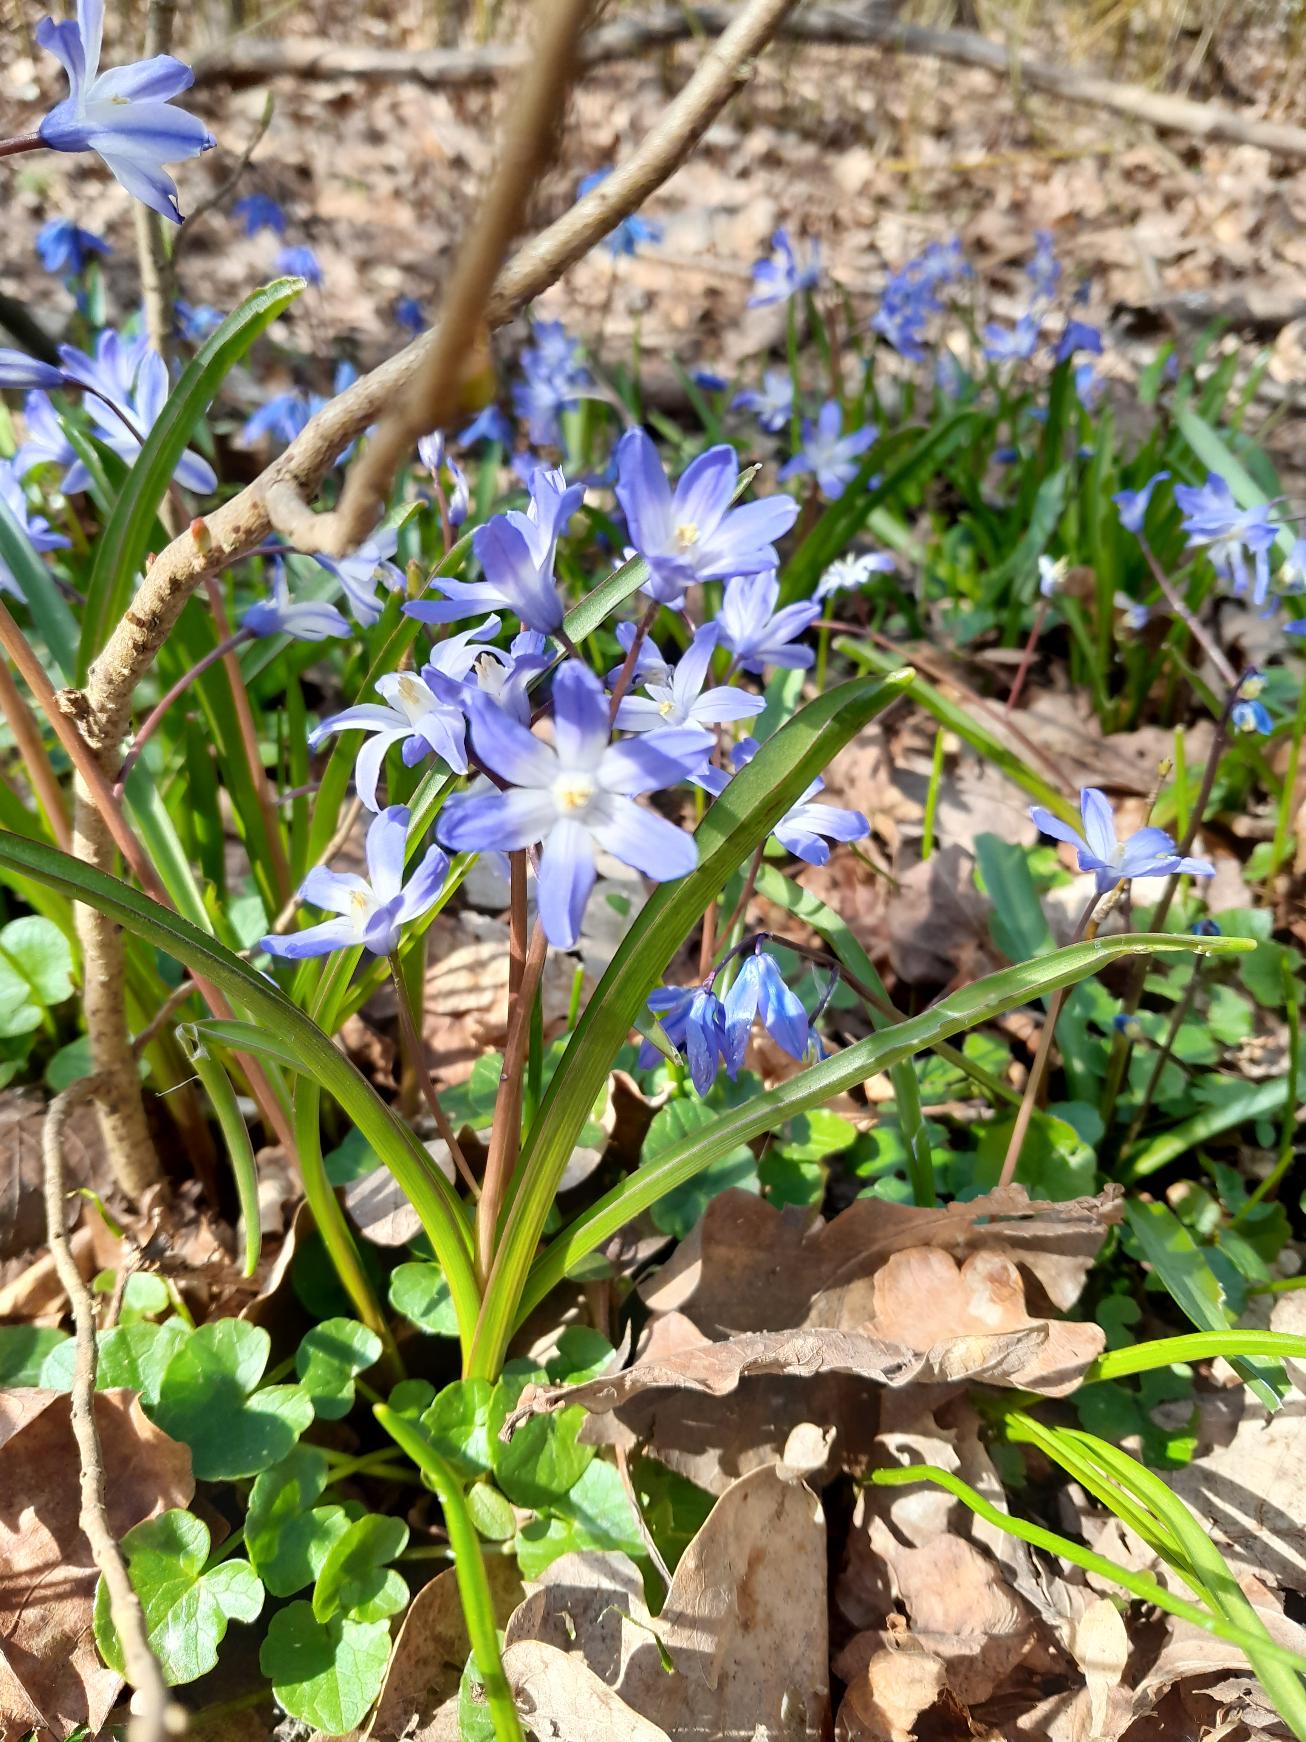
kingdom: Plantae
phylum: Tracheophyta
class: Liliopsida
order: Asparagales
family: Asparagaceae
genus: Scilla
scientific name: Scilla forbesii
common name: Almindelig snepryd
